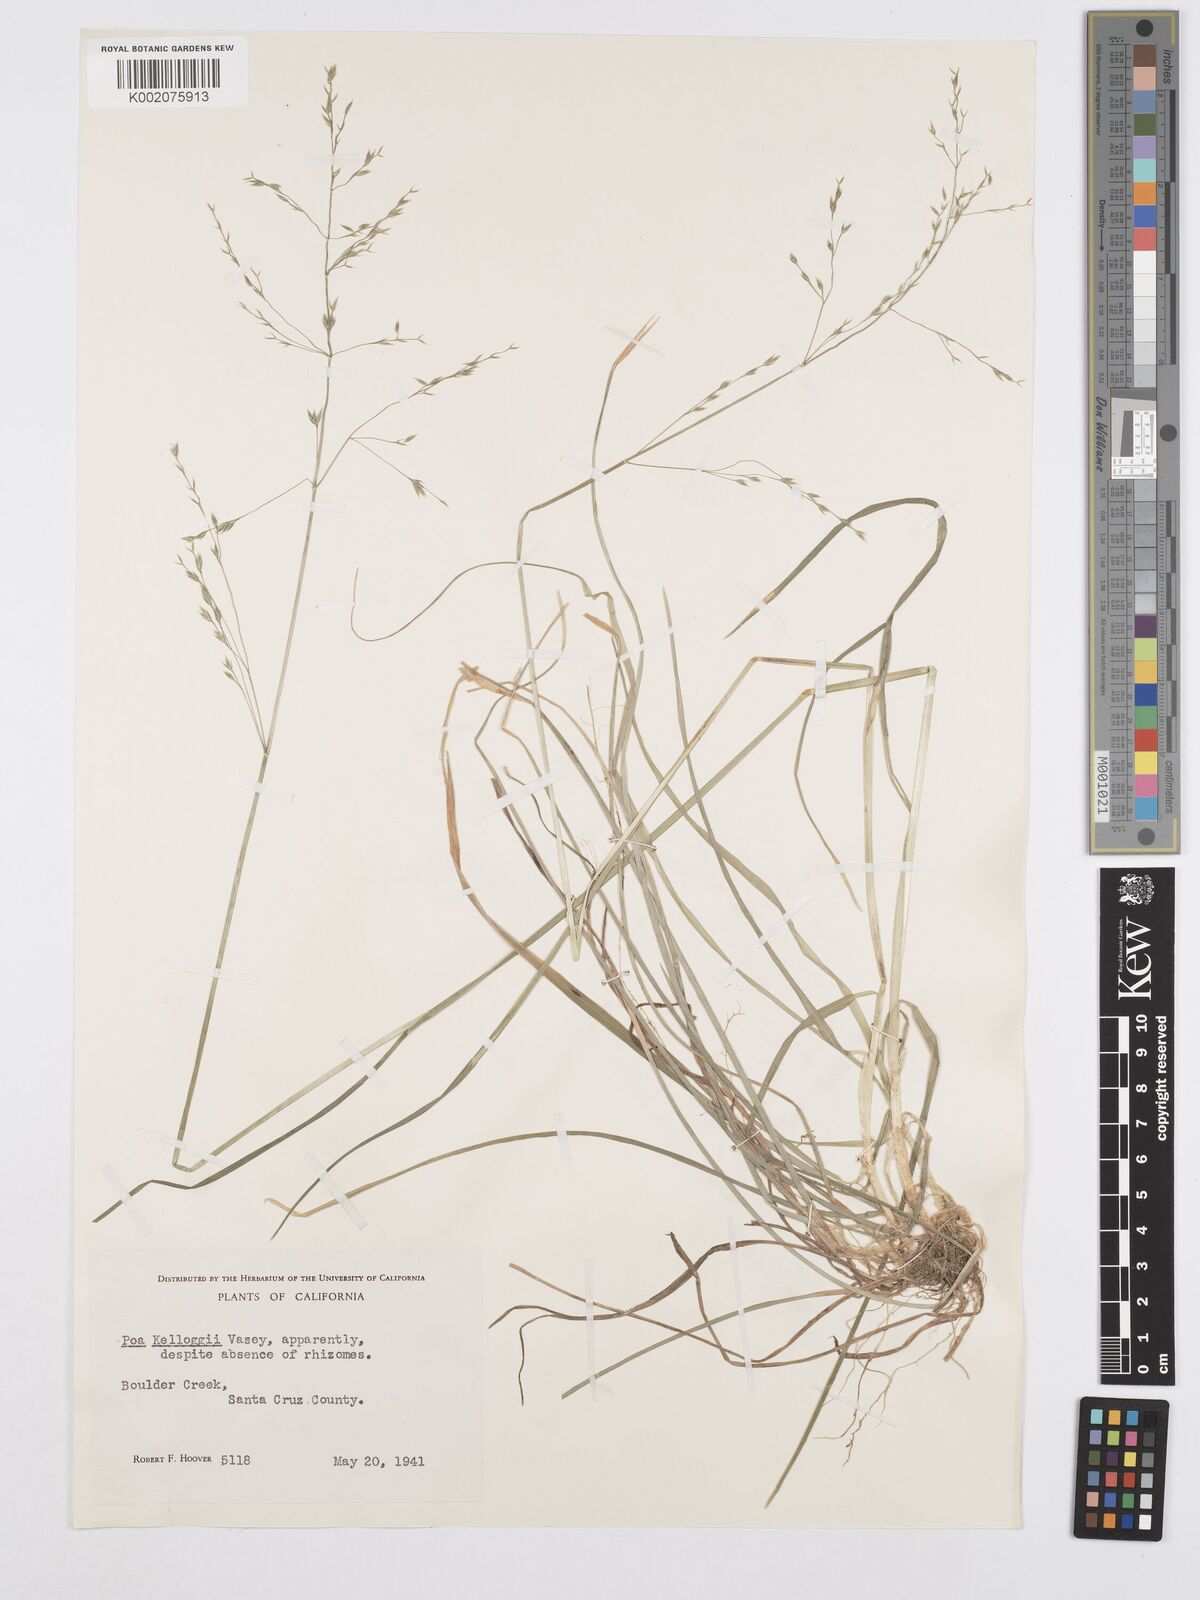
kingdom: Plantae
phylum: Tracheophyta
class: Liliopsida
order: Poales
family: Poaceae
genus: Poa
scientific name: Poa kelloggii
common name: Kellogg's bluegrass
